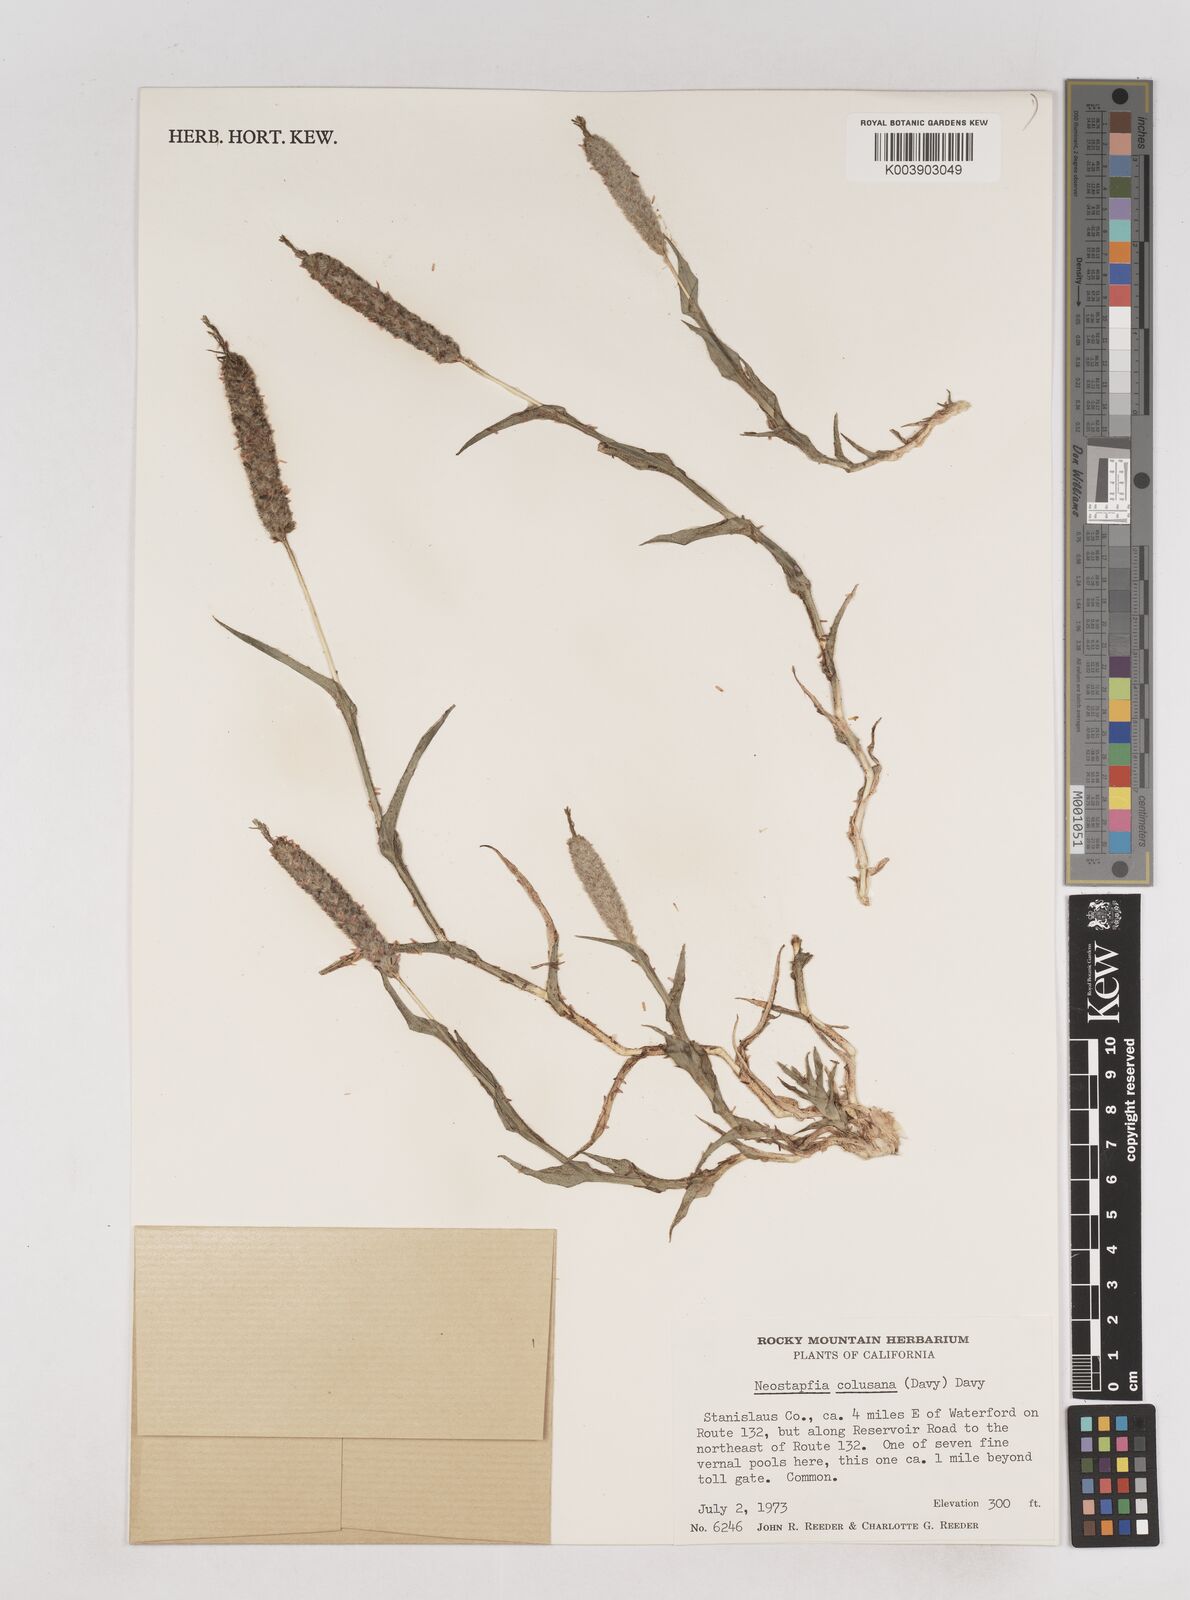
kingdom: Plantae
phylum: Tracheophyta
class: Liliopsida
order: Poales
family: Poaceae
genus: Neostapfia
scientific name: Neostapfia colusana
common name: Colusa grass
